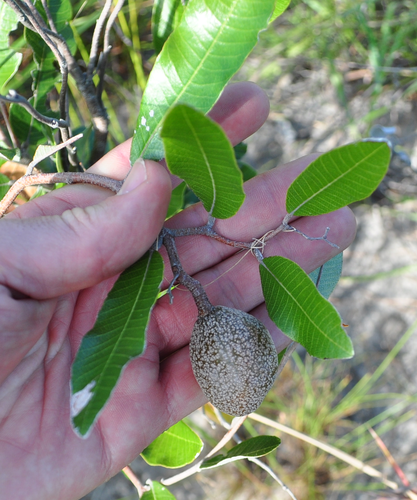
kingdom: Plantae
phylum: Tracheophyta
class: Magnoliopsida
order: Malpighiales
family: Chrysobalanaceae
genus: Parinari
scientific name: Parinari curatellifolia
